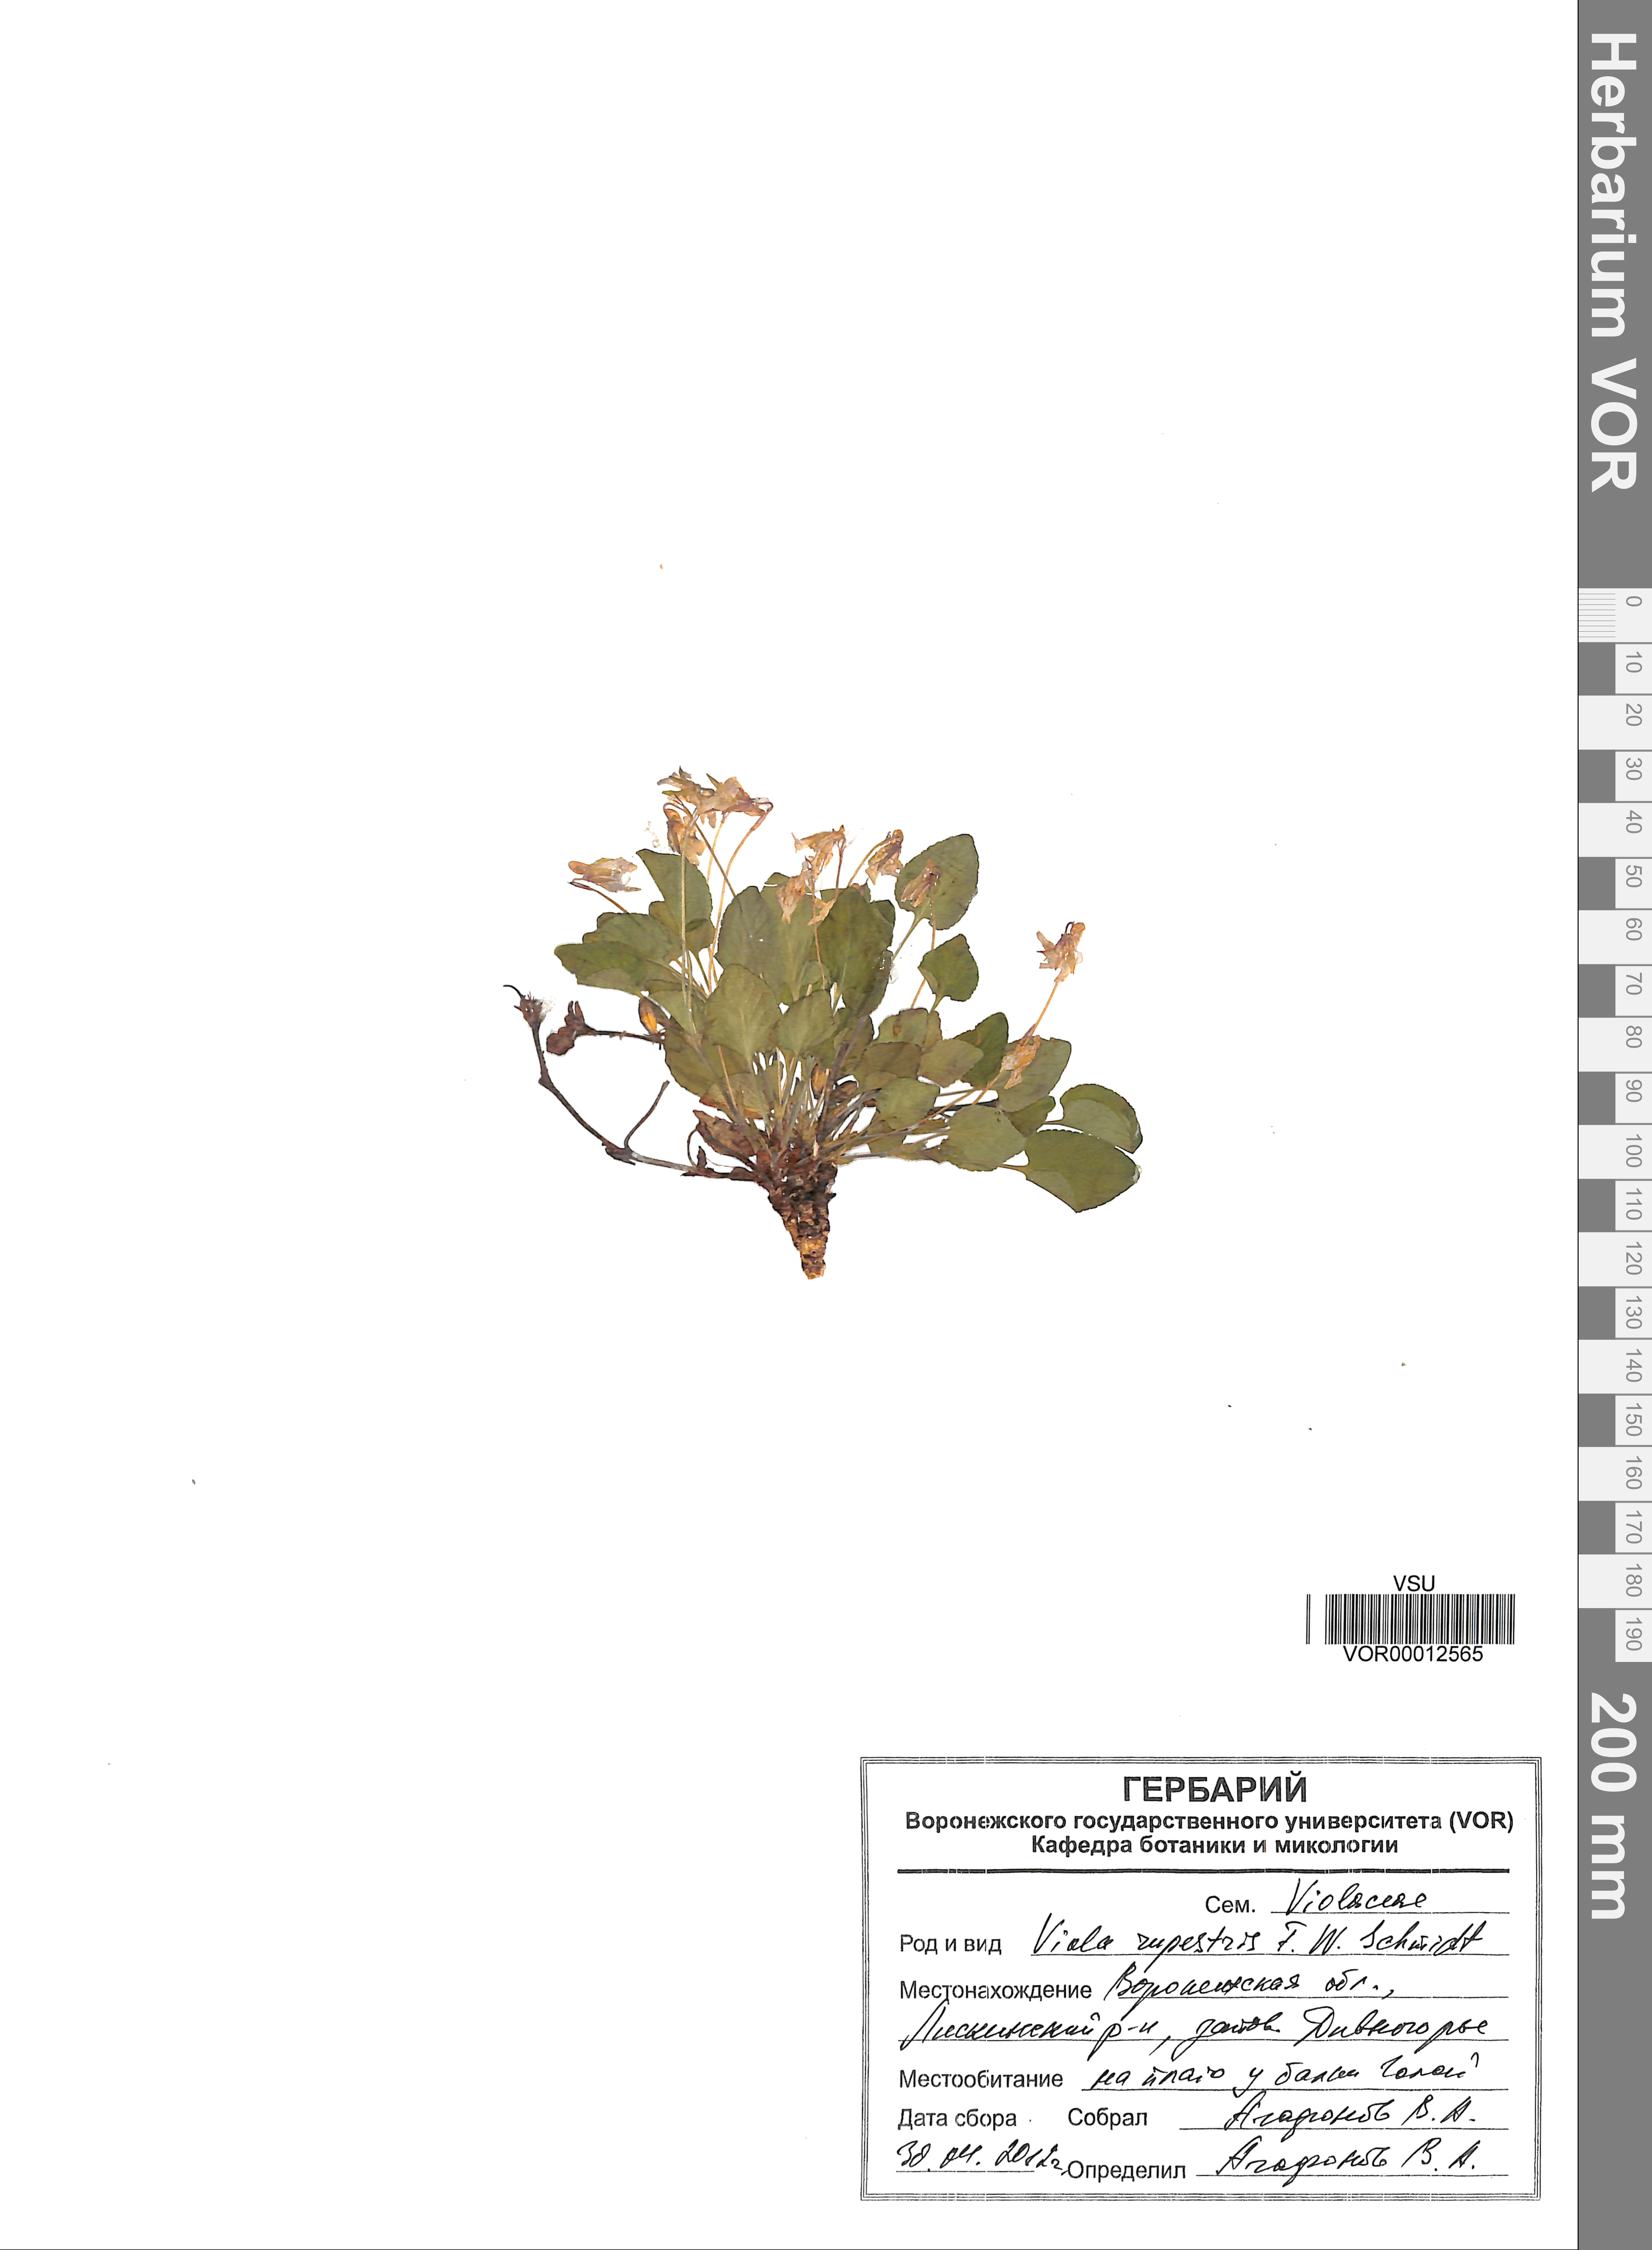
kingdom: Plantae
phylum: Tracheophyta
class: Magnoliopsida
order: Malpighiales
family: Violaceae
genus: Viola
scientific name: Viola rupestris
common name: Teesdale violet
